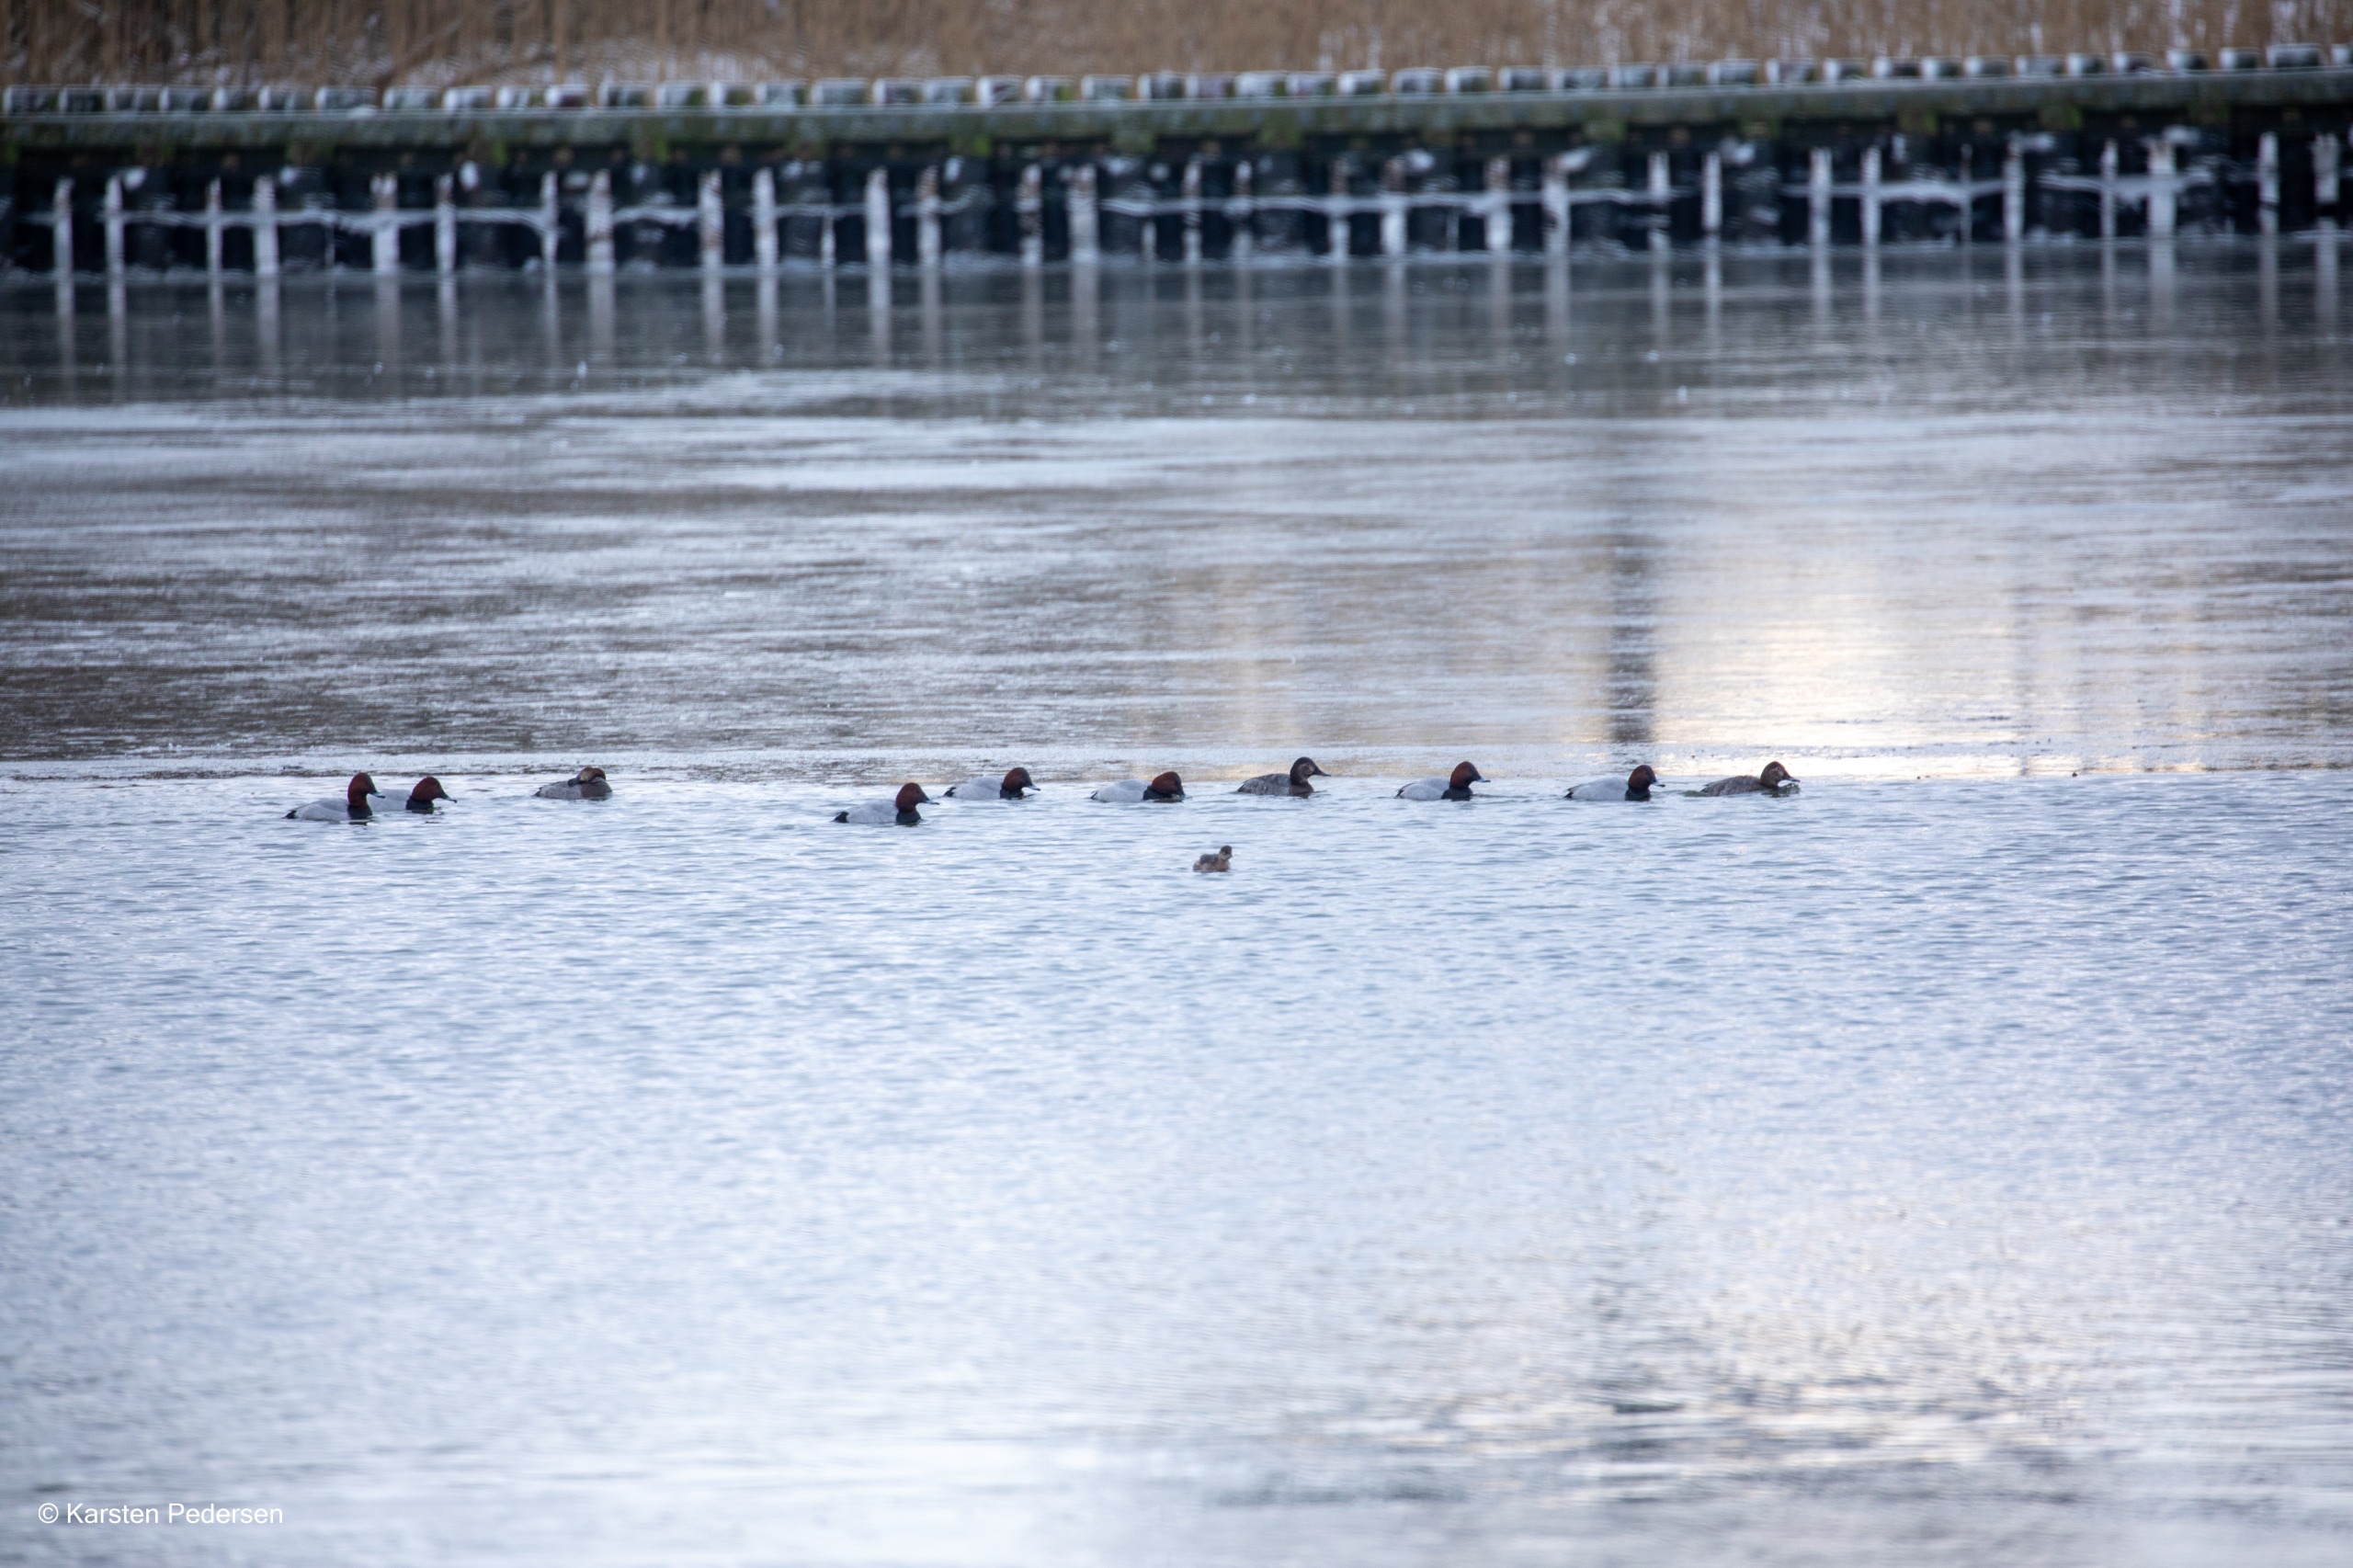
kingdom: Animalia
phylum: Chordata
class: Aves
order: Anseriformes
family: Anatidae
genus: Aythya
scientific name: Aythya ferina
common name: Taffeland
